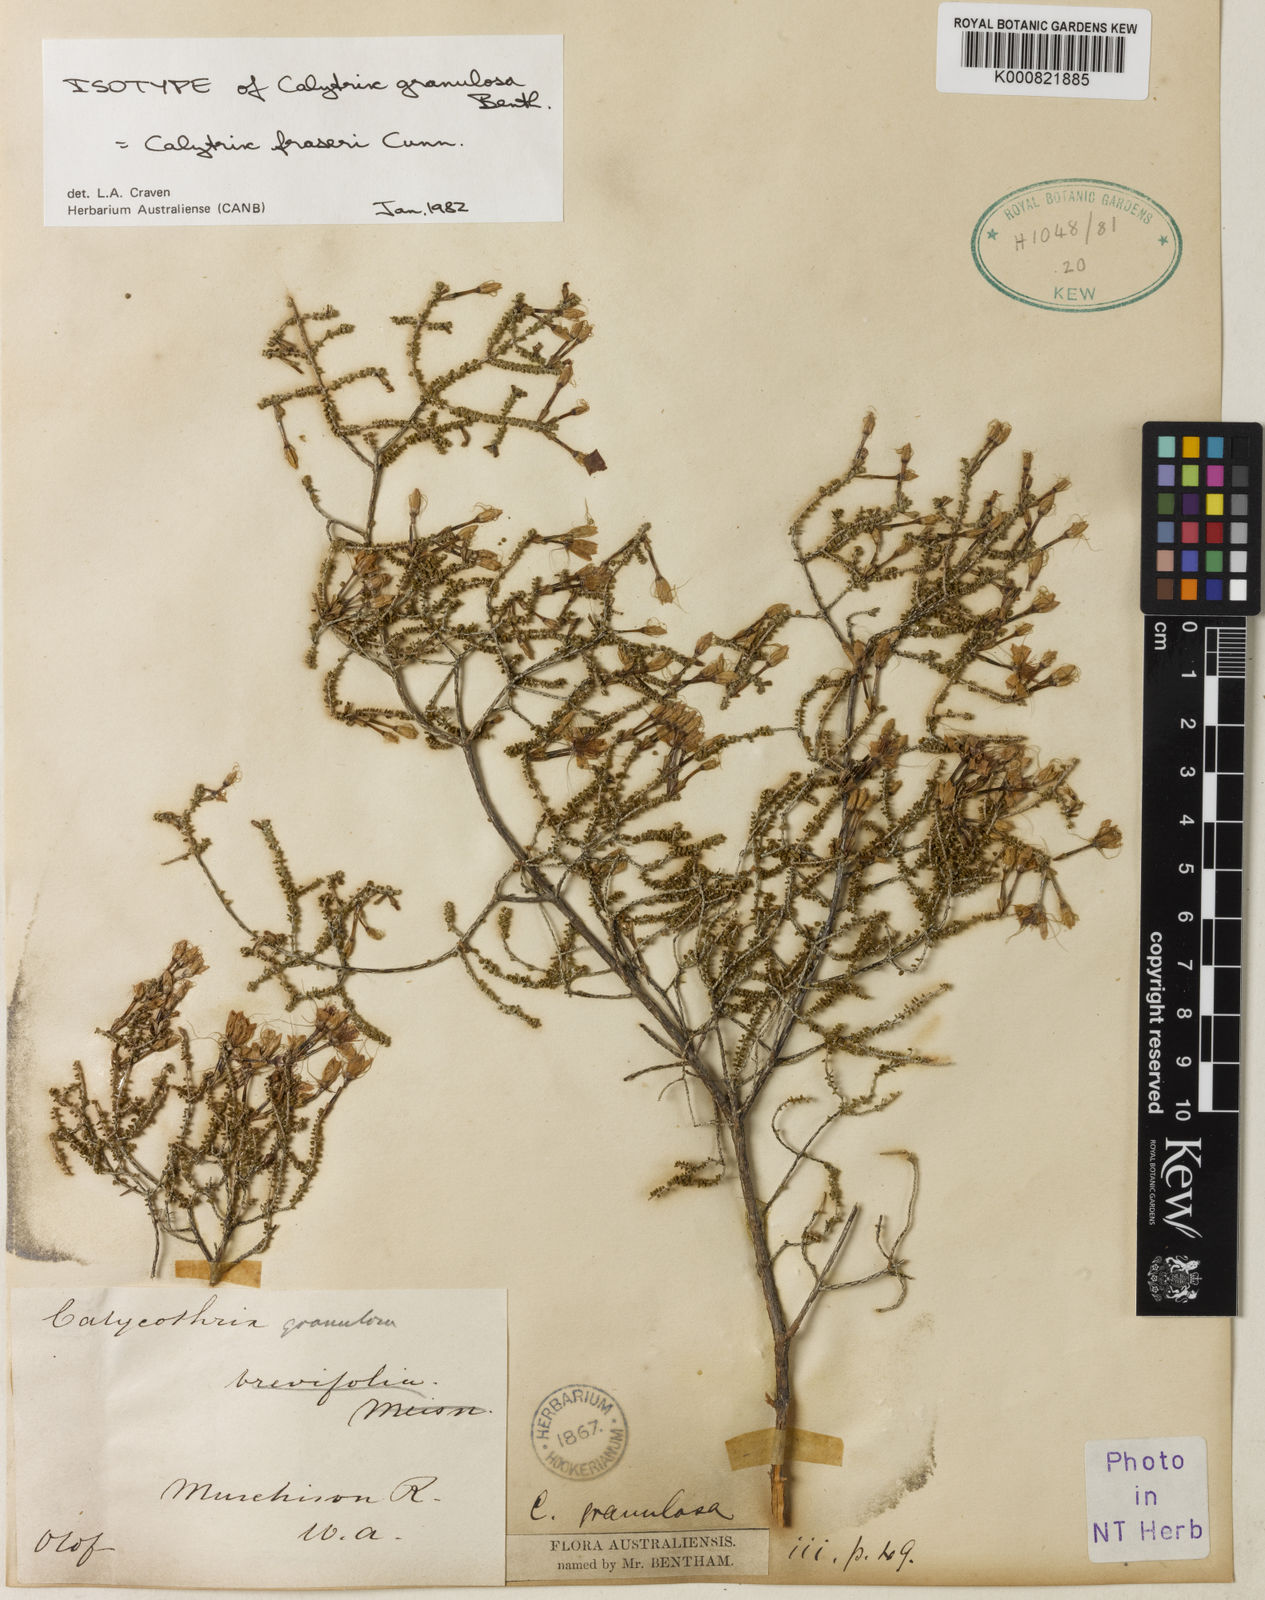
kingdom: Plantae
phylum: Tracheophyta
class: Magnoliopsida
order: Myrtales
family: Myrtaceae
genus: Calytrix
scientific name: Calytrix fraseri
